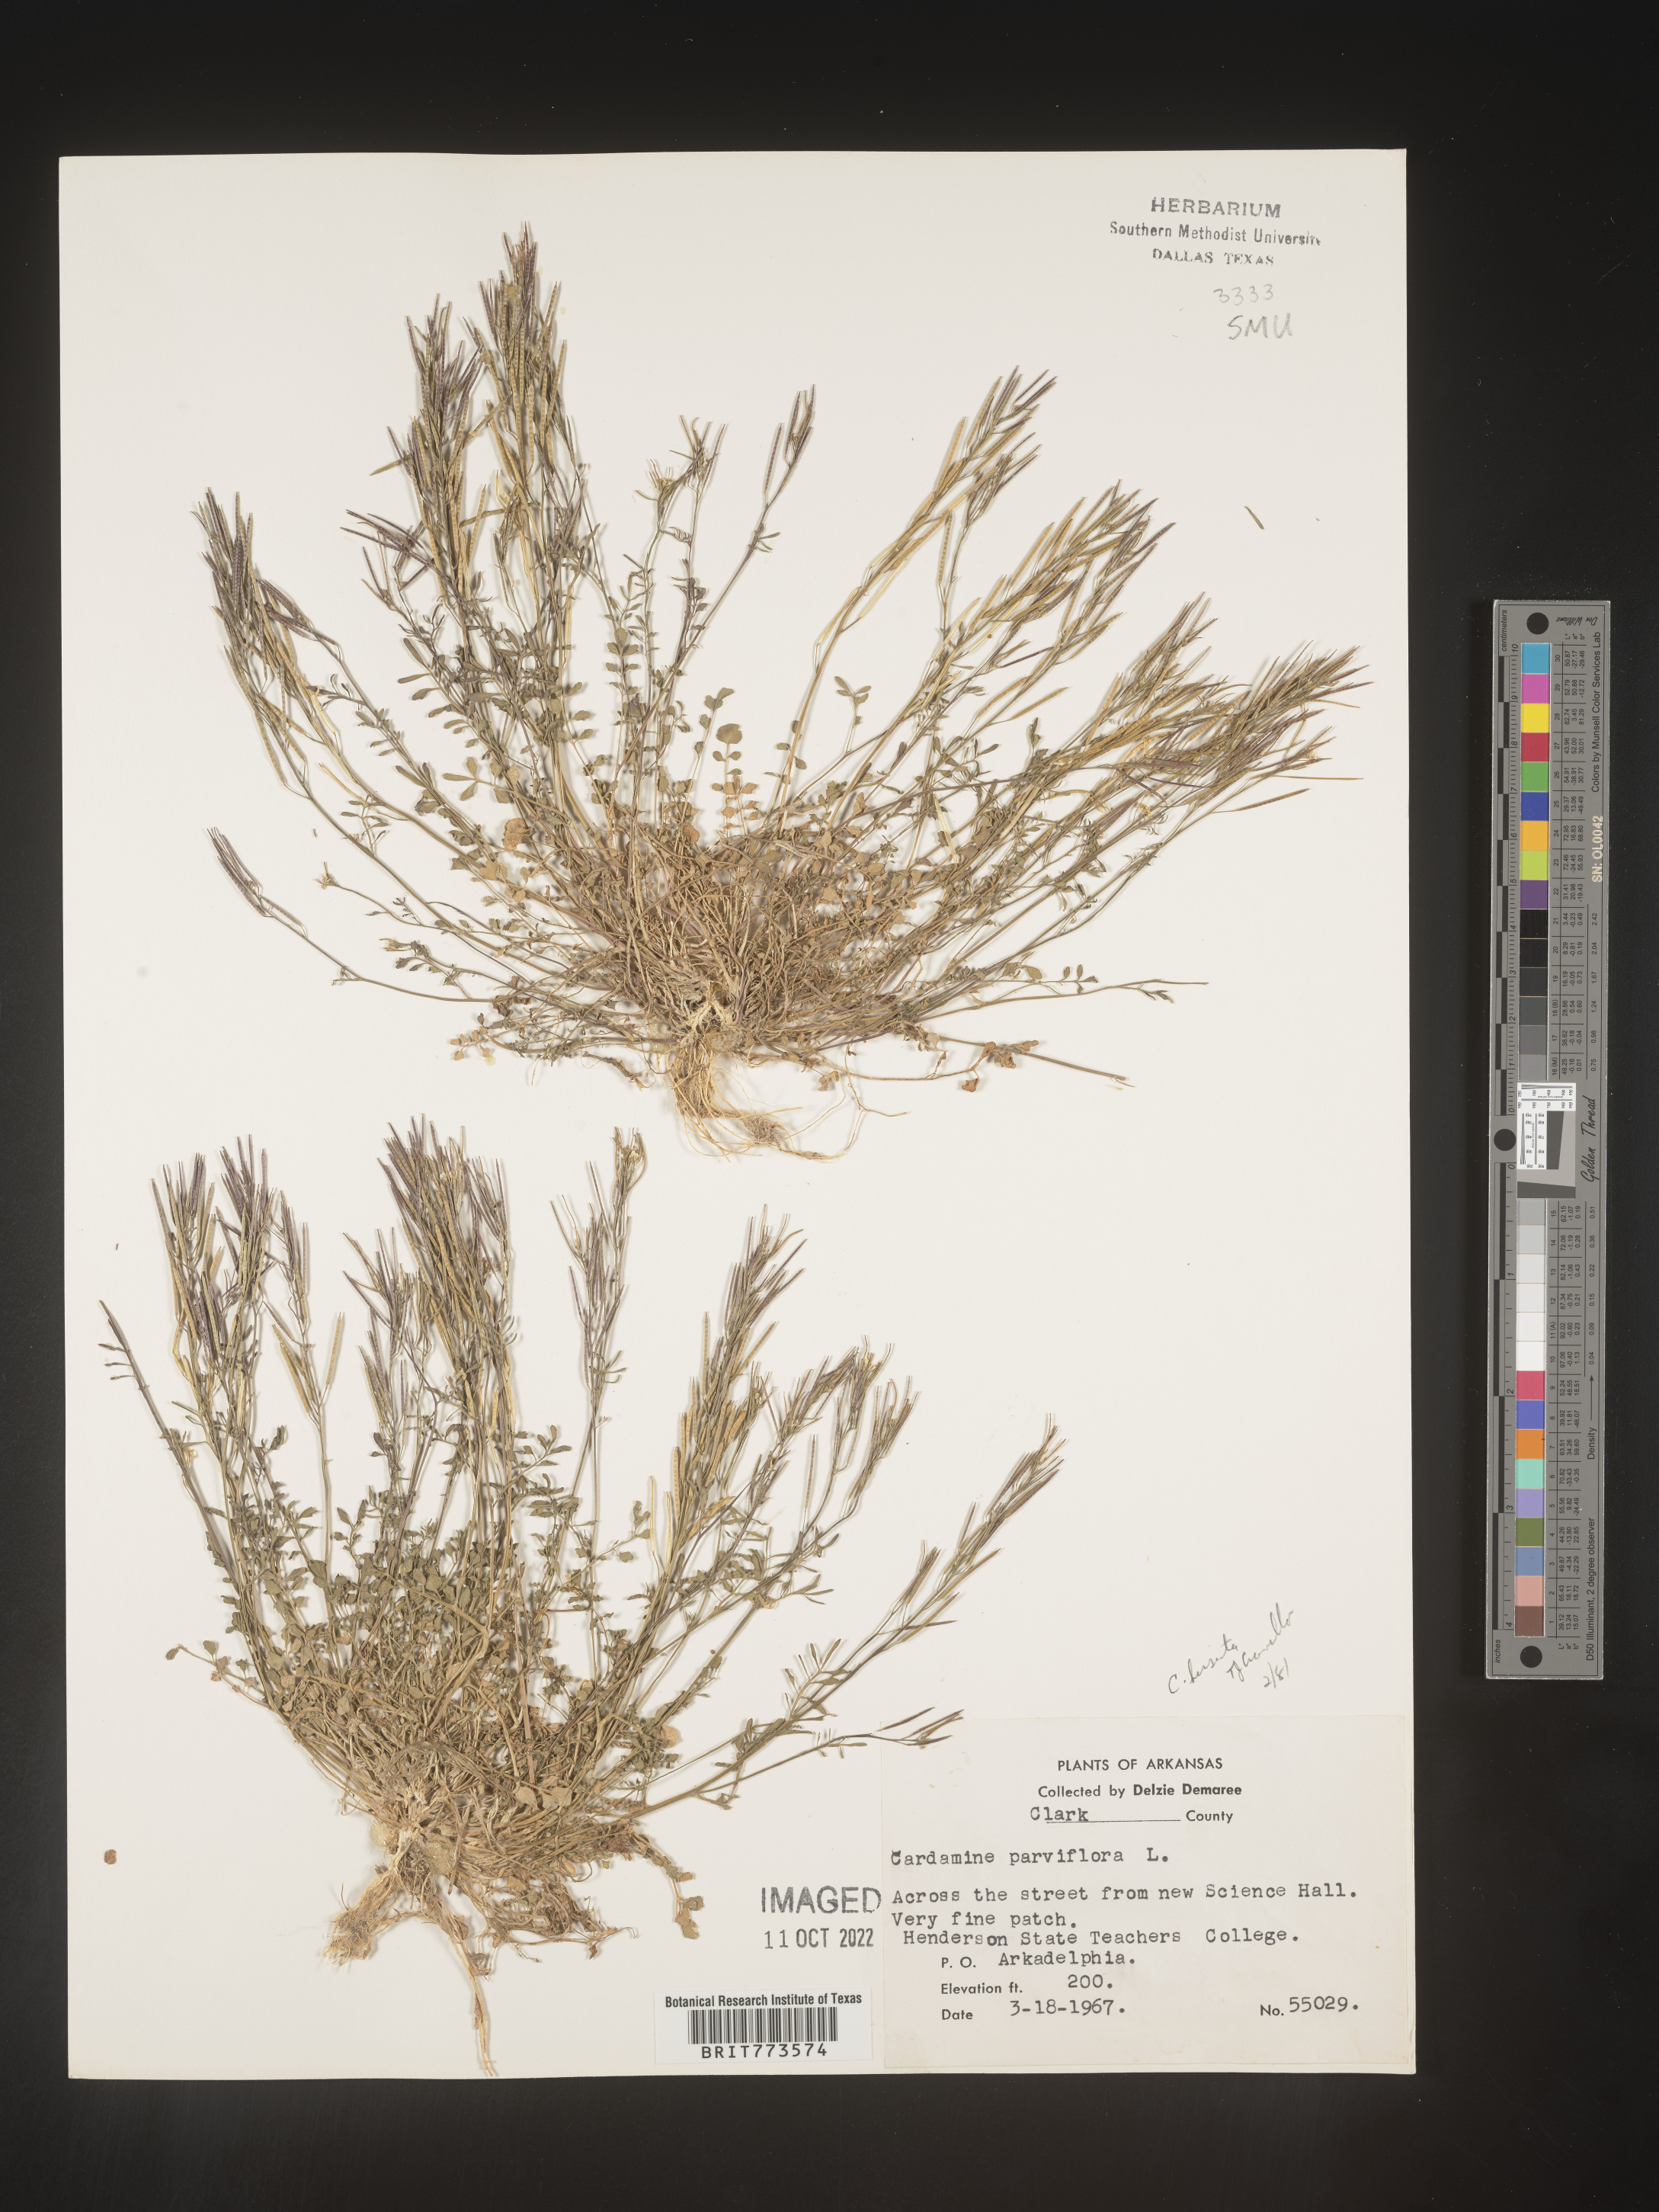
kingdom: Plantae
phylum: Tracheophyta
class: Magnoliopsida
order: Brassicales
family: Brassicaceae
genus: Cardamine
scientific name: Cardamine parviflora
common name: Sand bittercress
